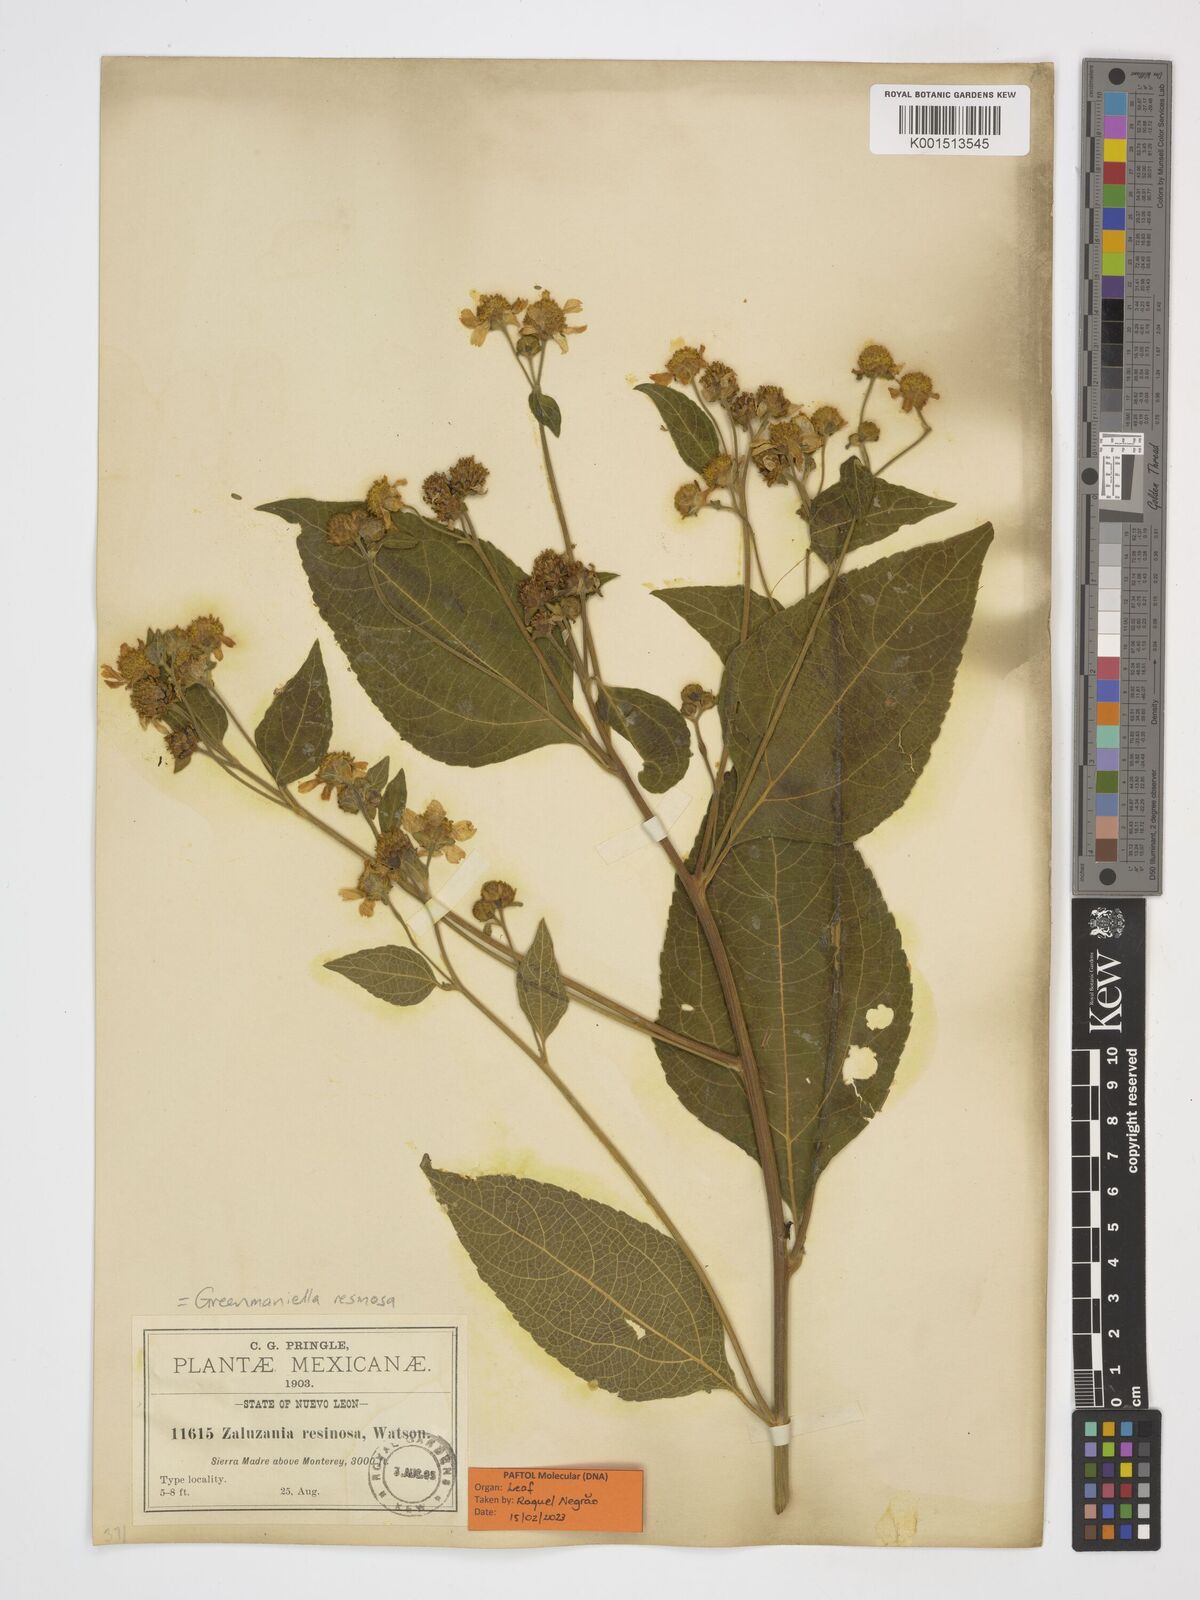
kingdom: Plantae
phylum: Tracheophyta
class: Magnoliopsida
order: Asterales
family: Asteraceae
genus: Greenmaniella
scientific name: Greenmaniella resinosa
